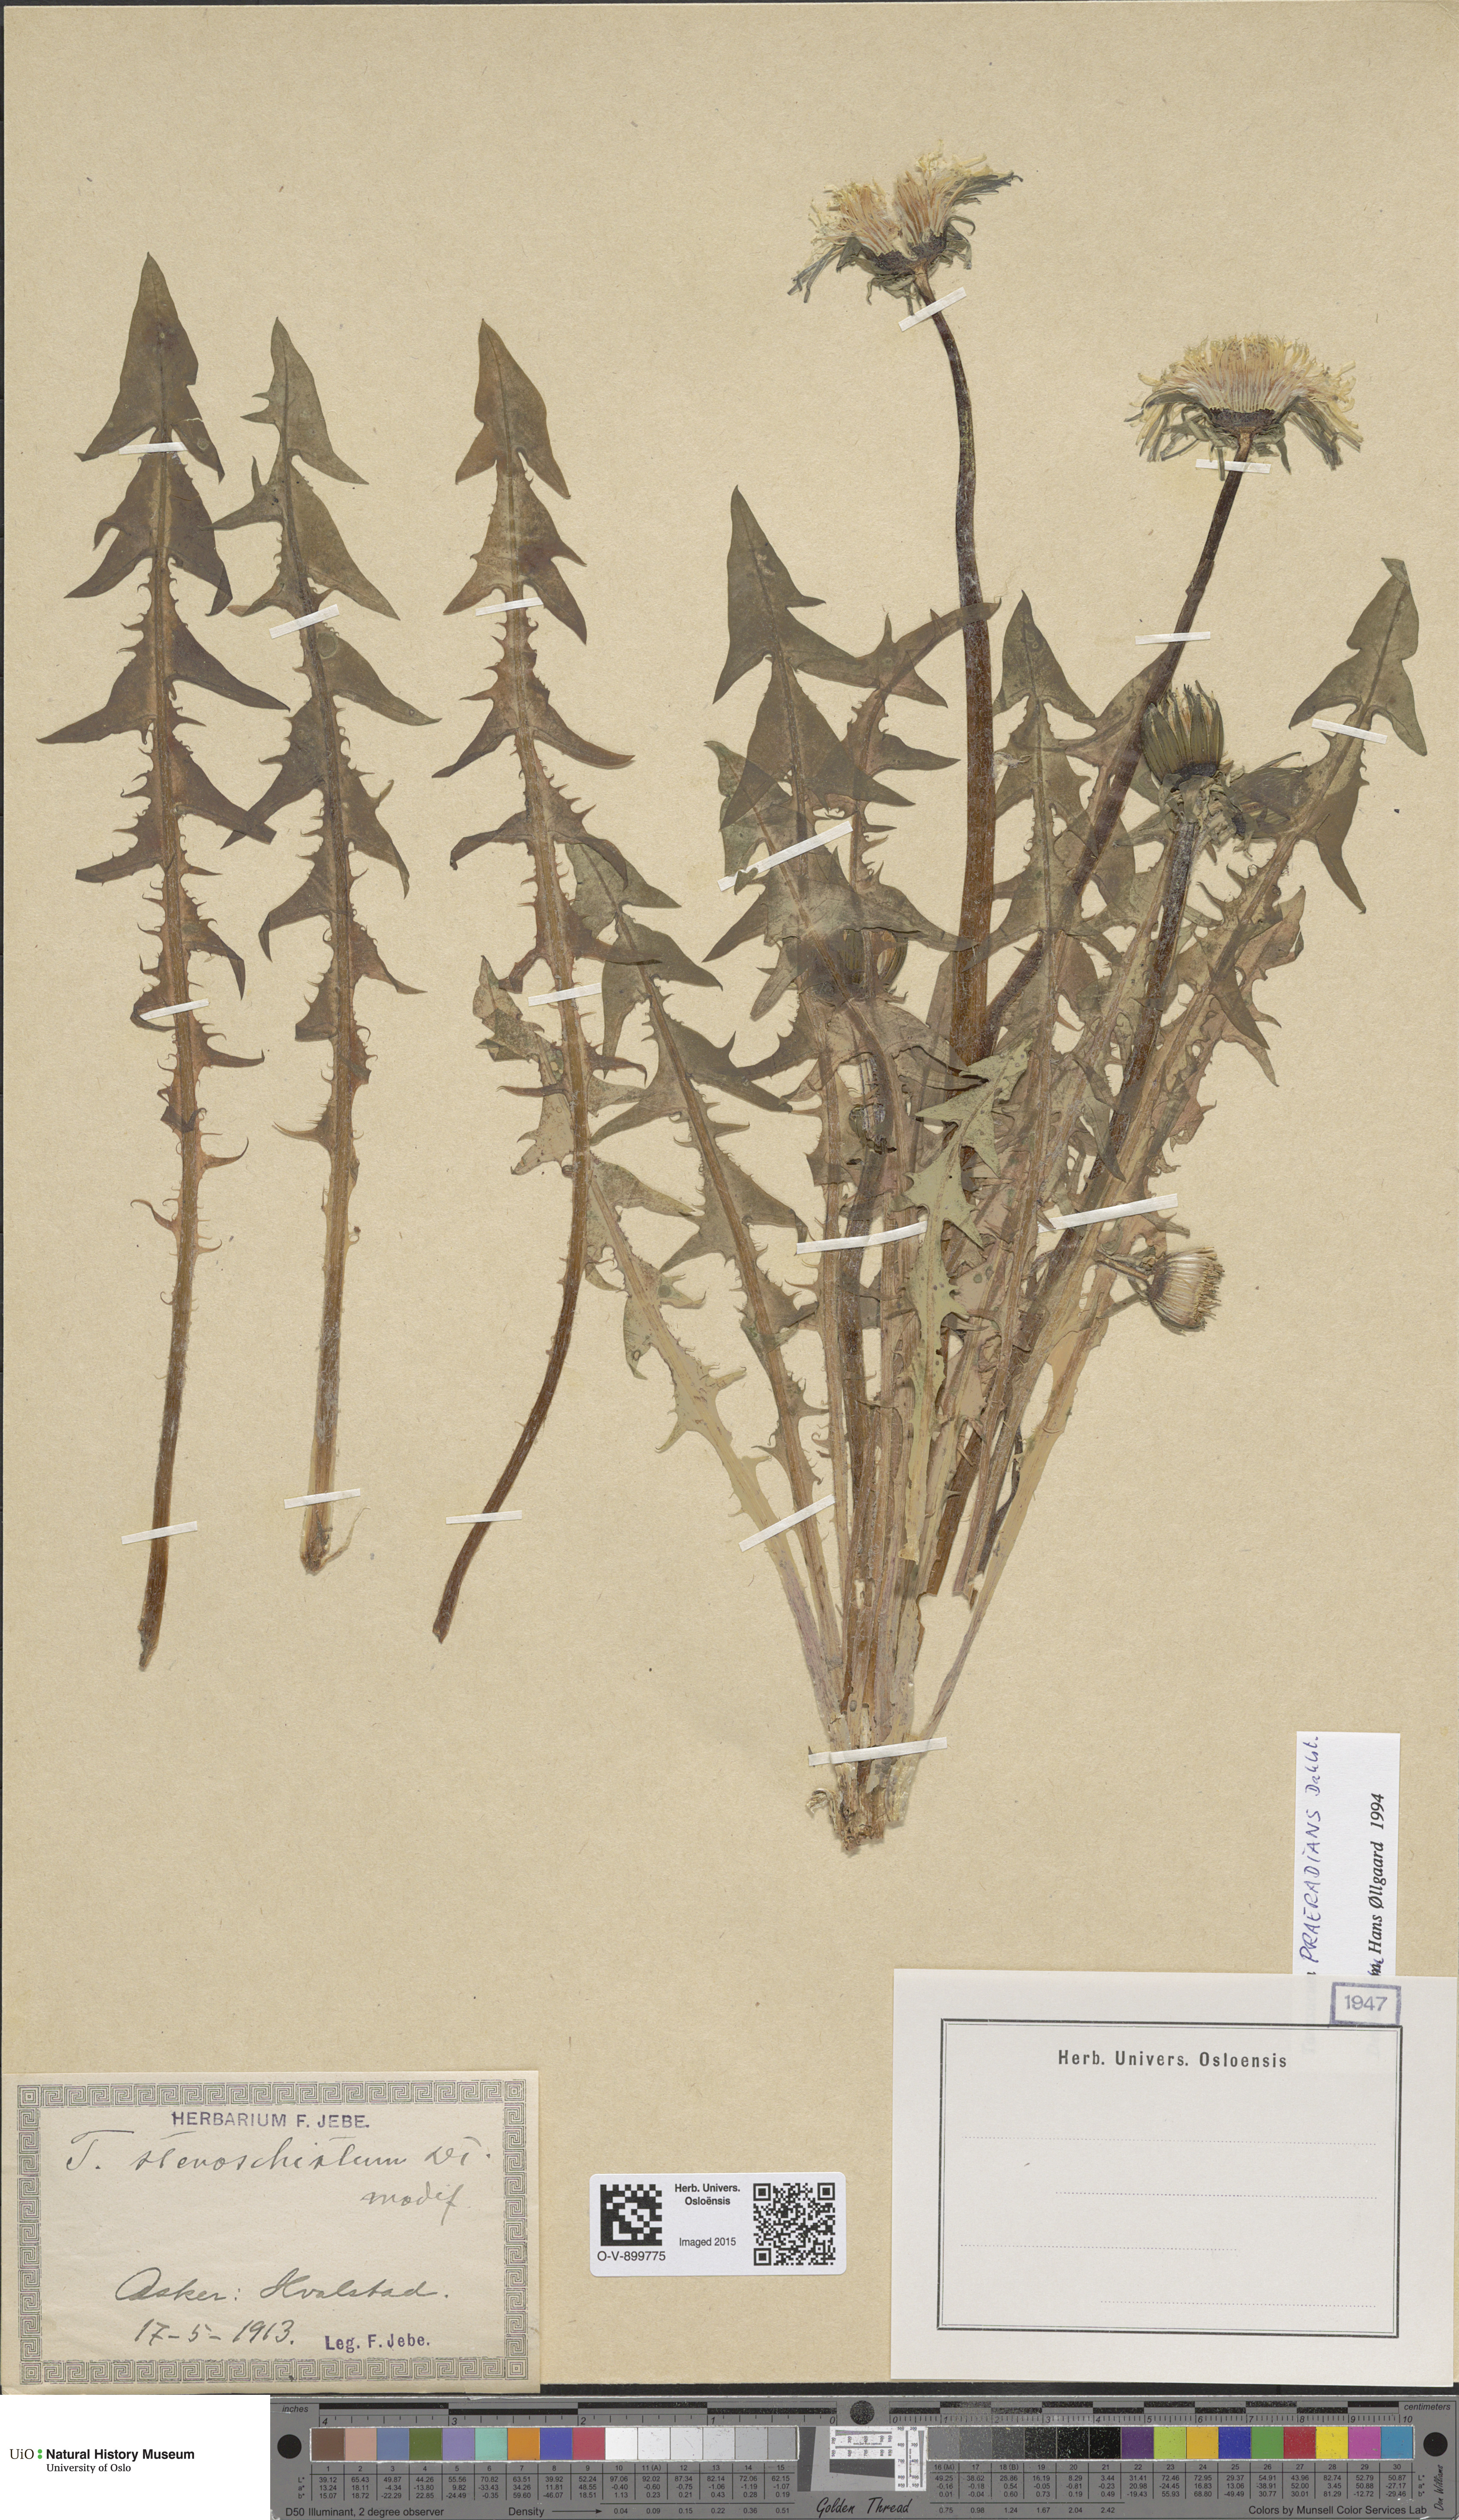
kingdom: Plantae
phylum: Tracheophyta
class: Magnoliopsida
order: Asterales
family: Asteraceae
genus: Taraxacum
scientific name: Taraxacum praeradians
